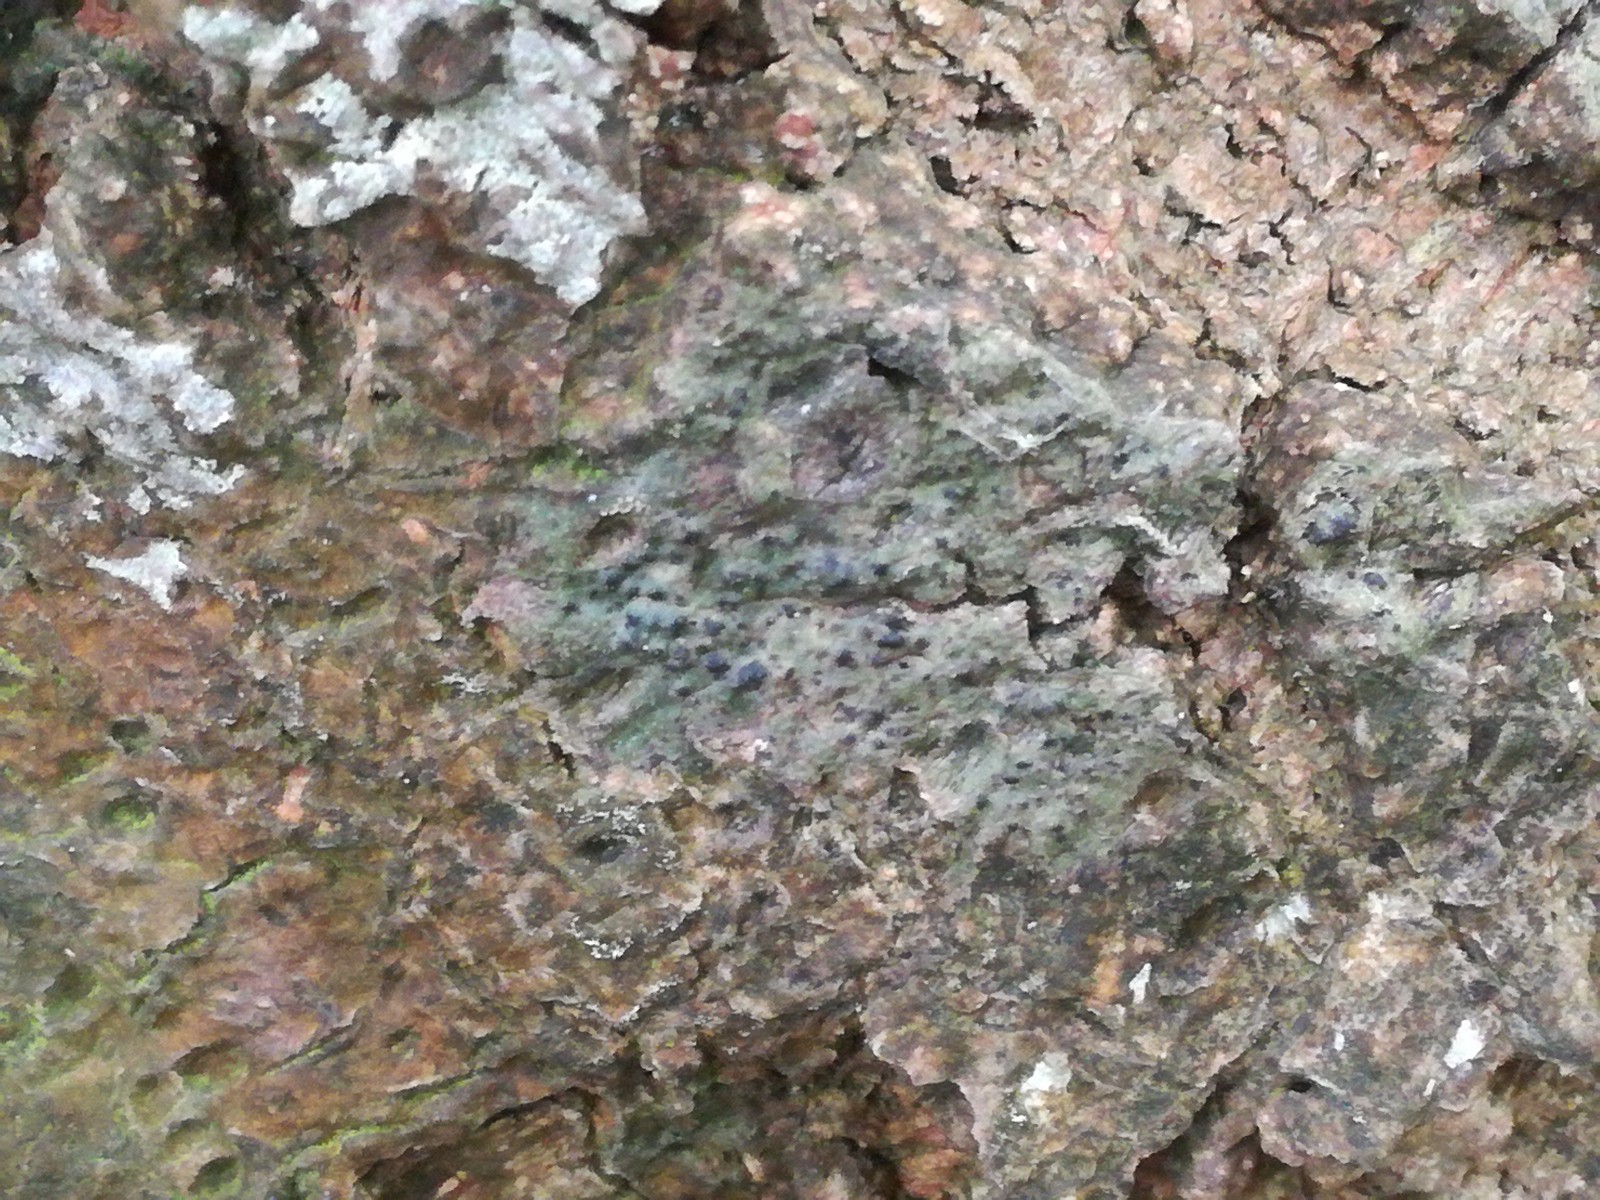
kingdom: Fungi
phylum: Ascomycota
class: Eurotiomycetes
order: Pyrenulales
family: Pyrenulaceae
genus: Pyrenula
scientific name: Pyrenula nitida
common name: glinsende kernelav
